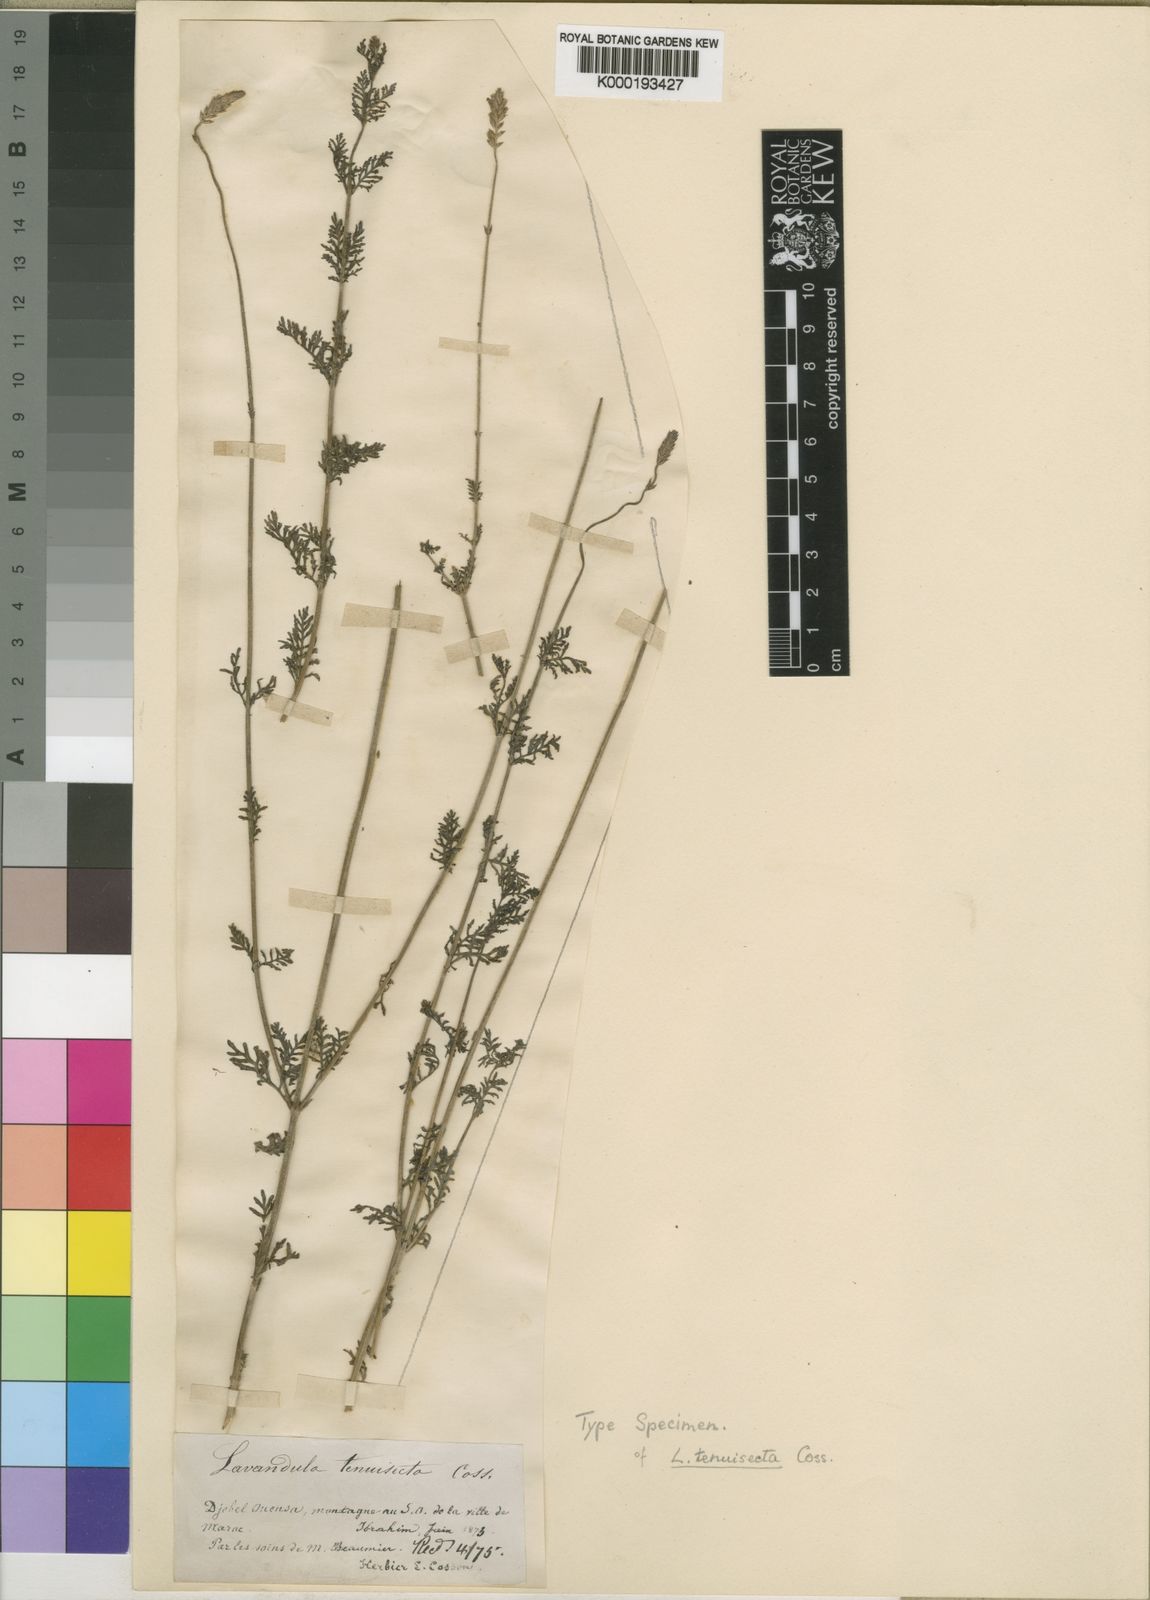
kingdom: Plantae
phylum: Tracheophyta
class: Magnoliopsida
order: Lamiales
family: Lamiaceae
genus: Lavandula
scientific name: Lavandula
